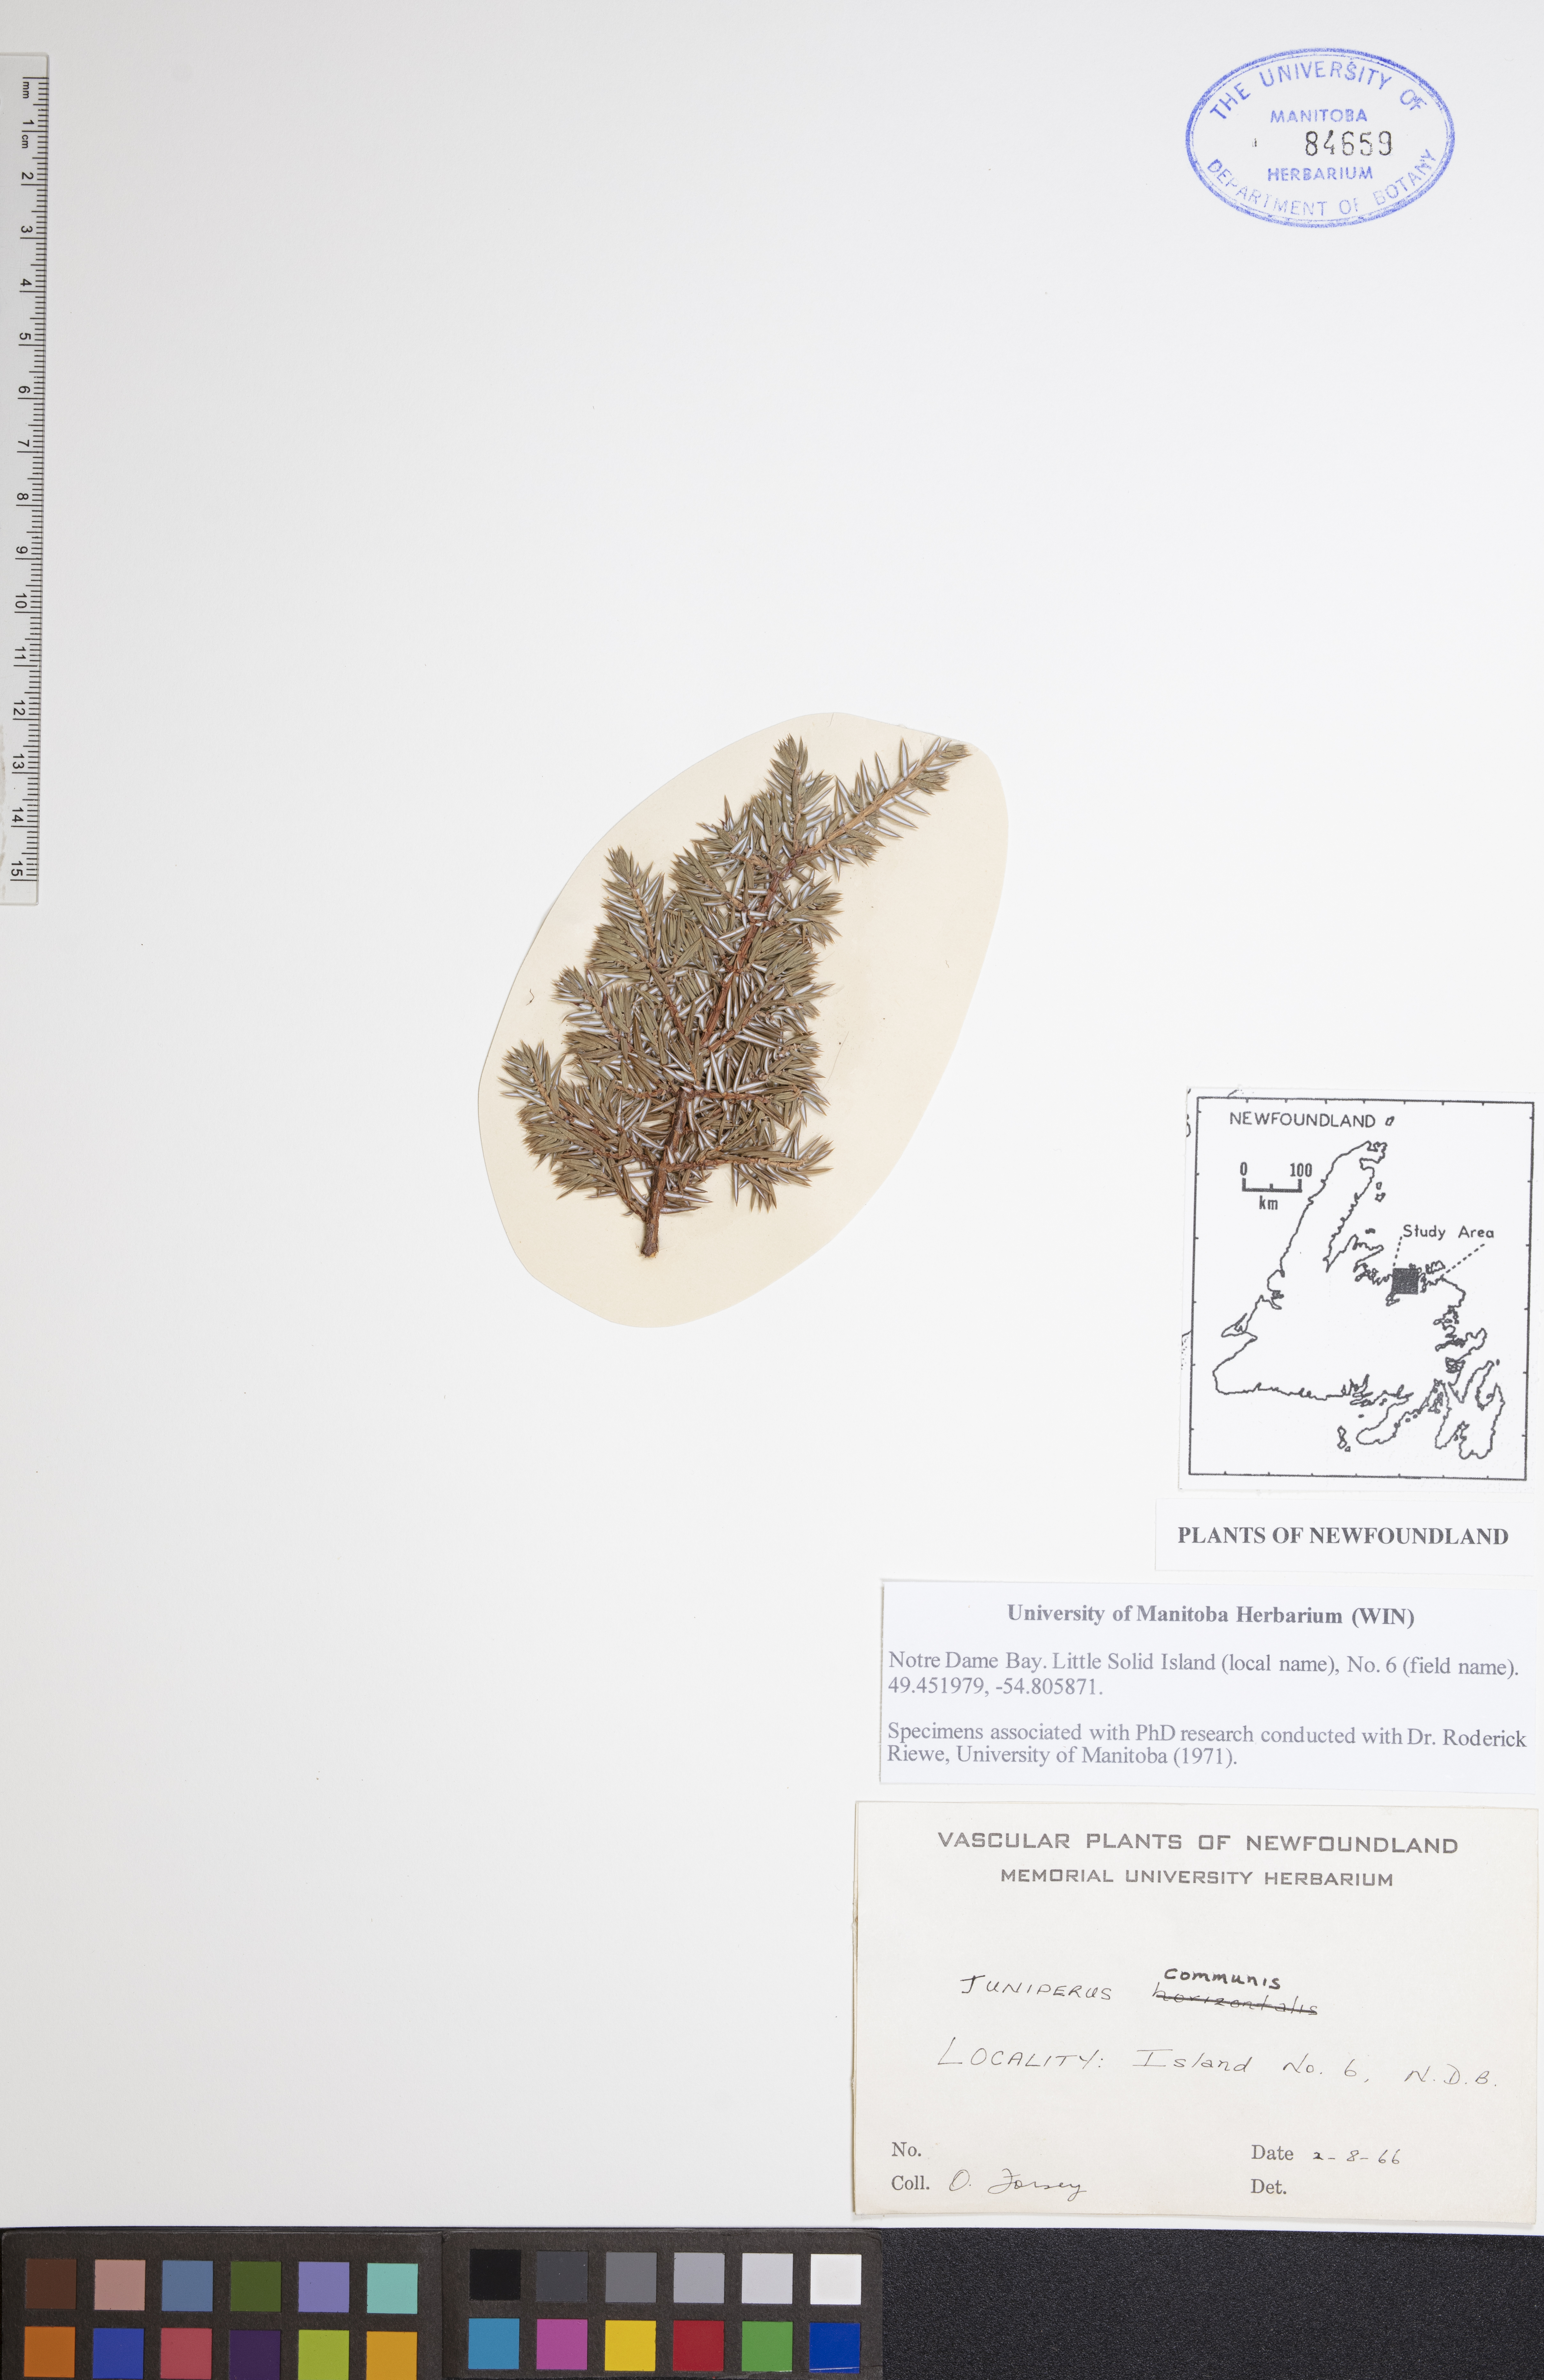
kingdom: Plantae
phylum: Tracheophyta
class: Pinopsida
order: Pinales
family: Cupressaceae
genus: Juniperus
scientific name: Juniperus communis
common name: Common juniper
